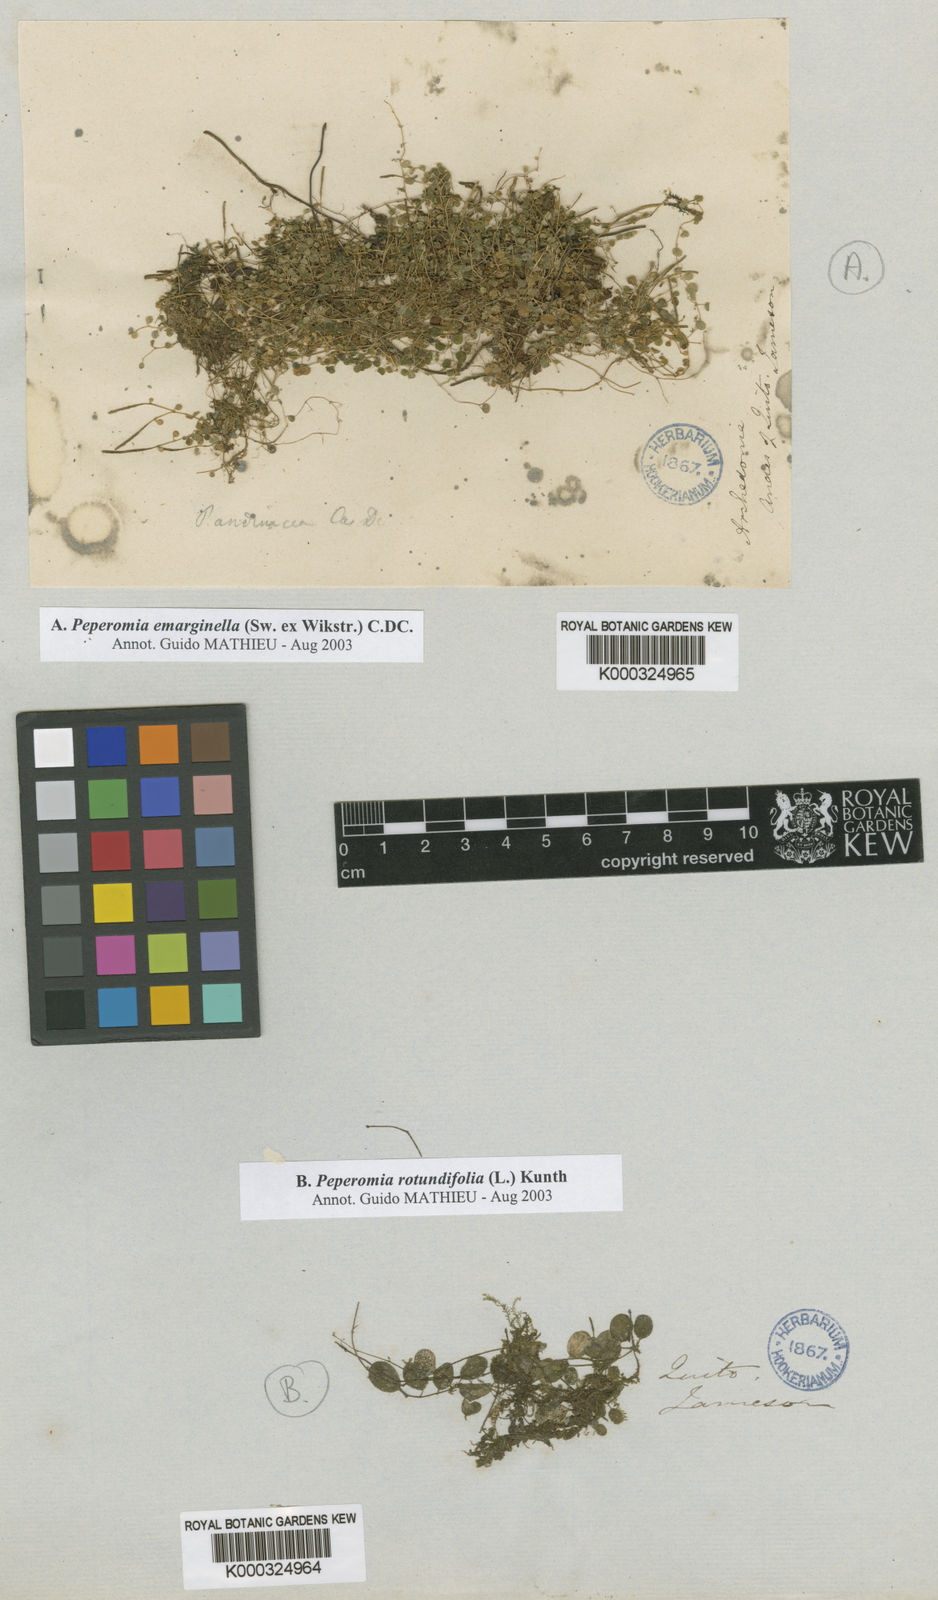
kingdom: Plantae
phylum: Tracheophyta
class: Magnoliopsida
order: Piperales
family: Piperaceae
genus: Peperomia
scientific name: Peperomia emarginella
